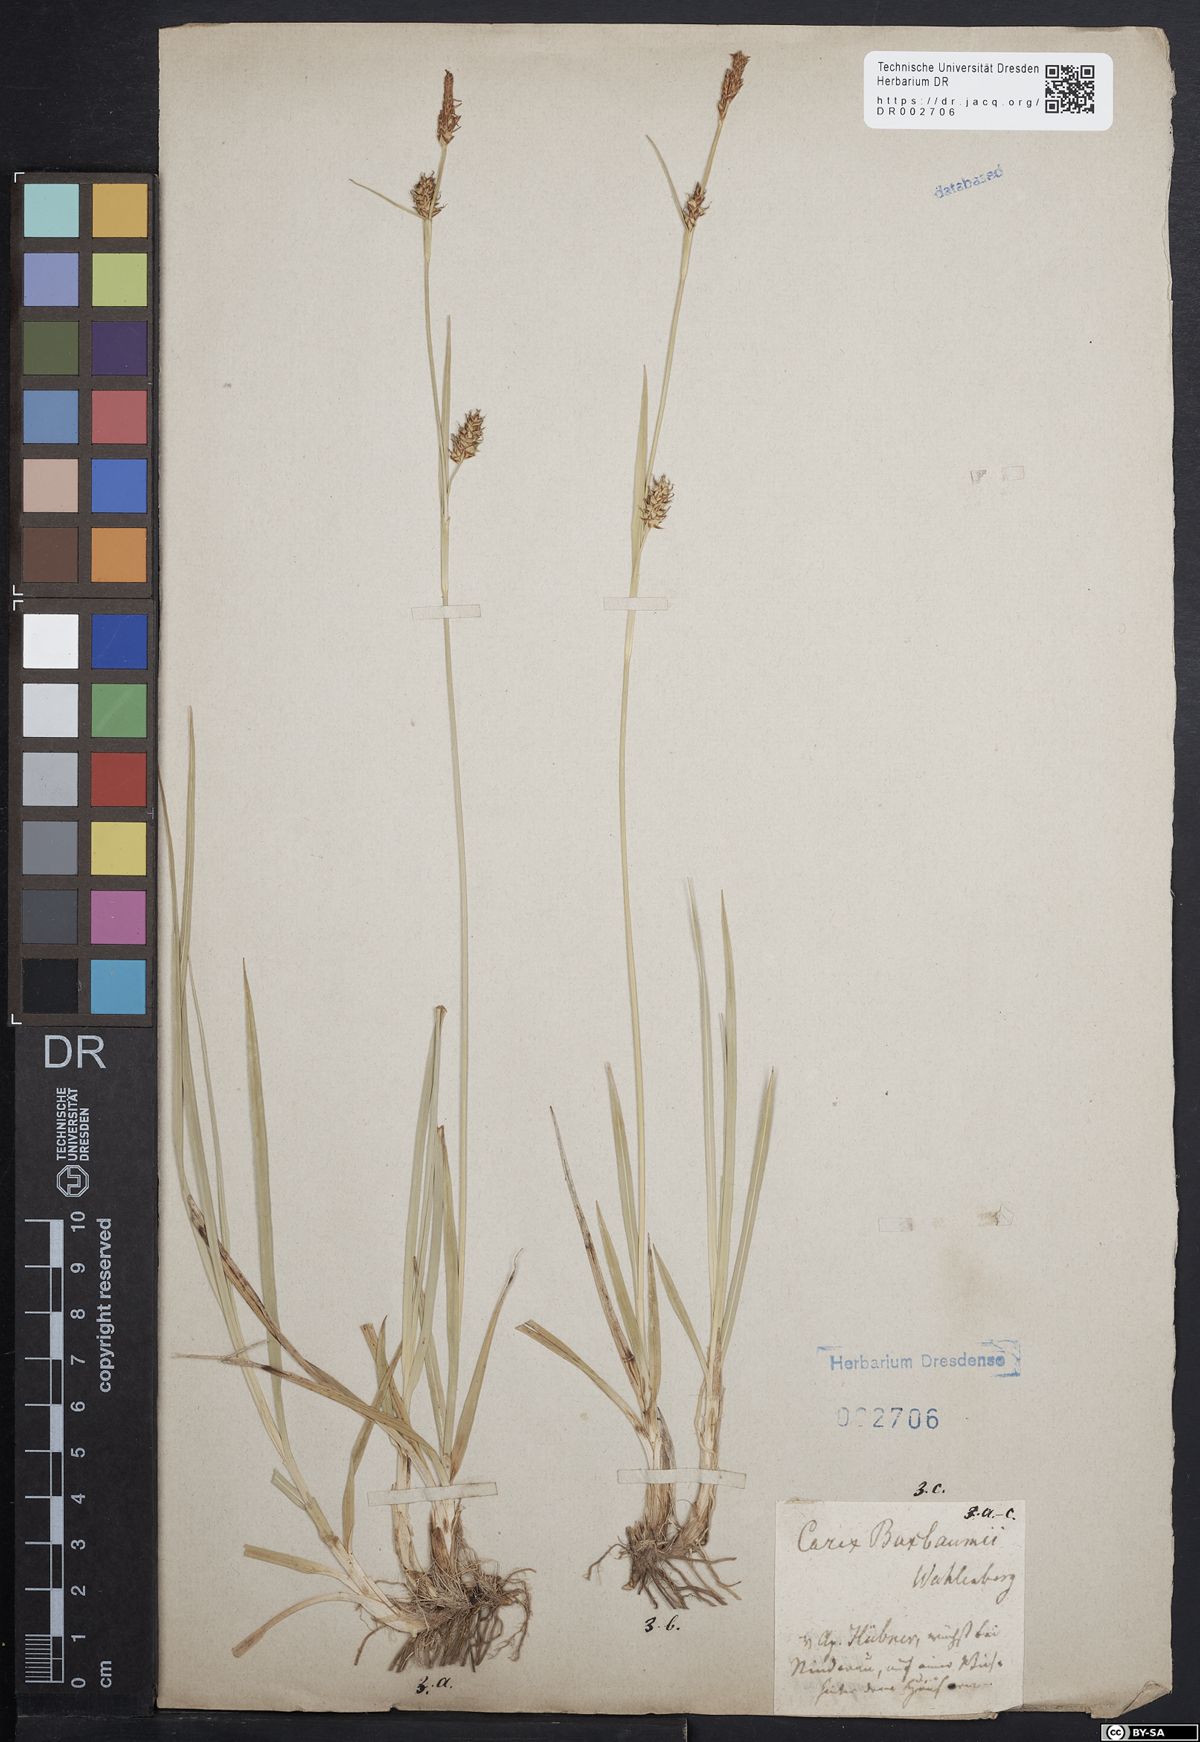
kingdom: Plantae
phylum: Tracheophyta
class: Liliopsida
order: Poales
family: Cyperaceae
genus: Carex
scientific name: Carex distans
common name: Distant sedge
